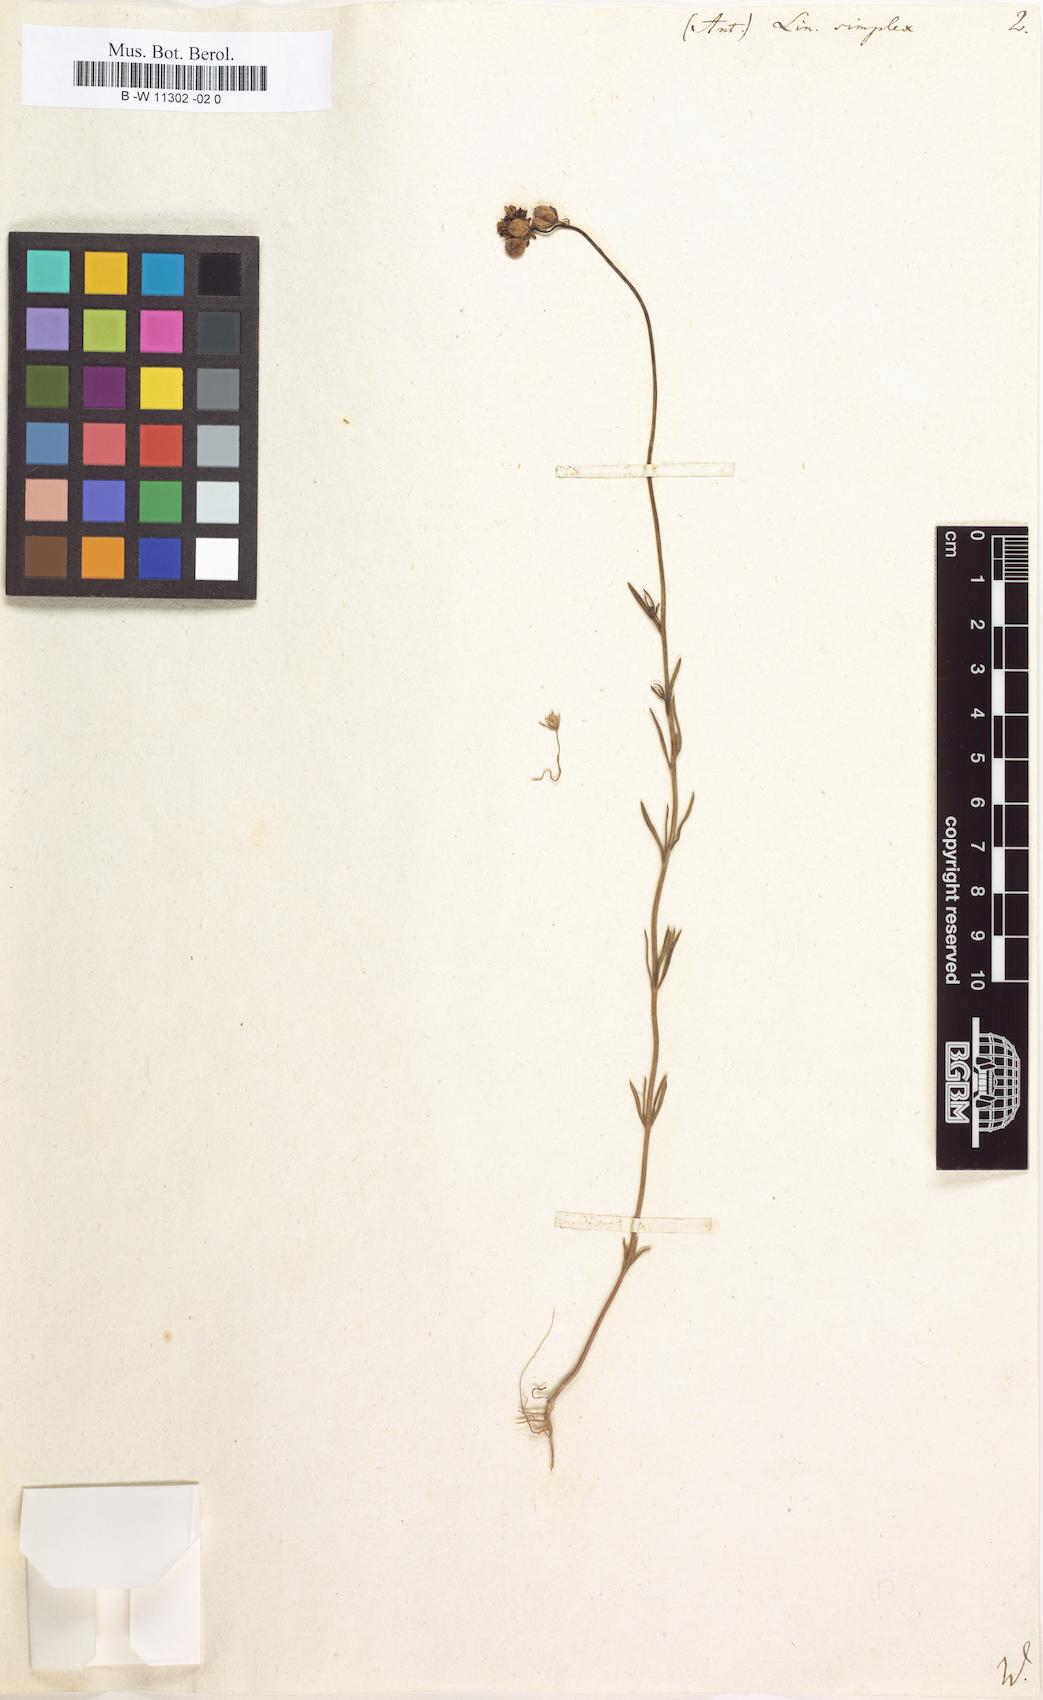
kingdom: Plantae
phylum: Tracheophyta
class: Magnoliopsida
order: Lamiales
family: Plantaginaceae
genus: Linaria
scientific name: Linaria simplex
